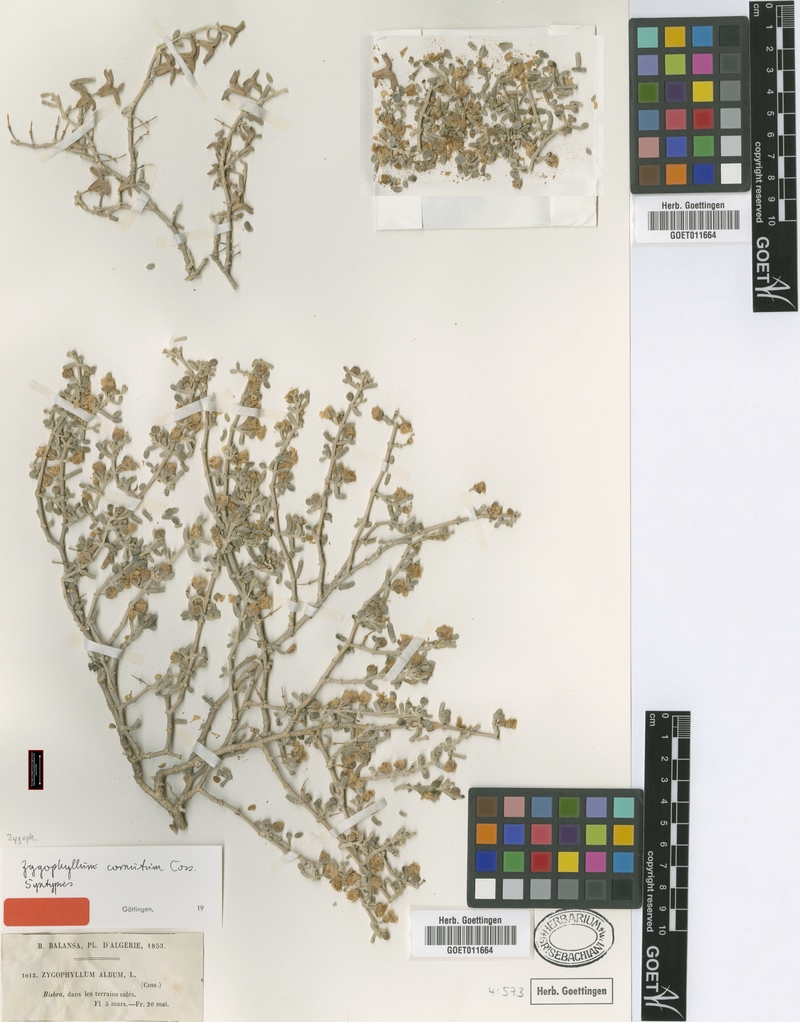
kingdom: Plantae
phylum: Tracheophyta
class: Magnoliopsida
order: Zygophyllales
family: Zygophyllaceae
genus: Tetraena
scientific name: Tetraena cornuta
